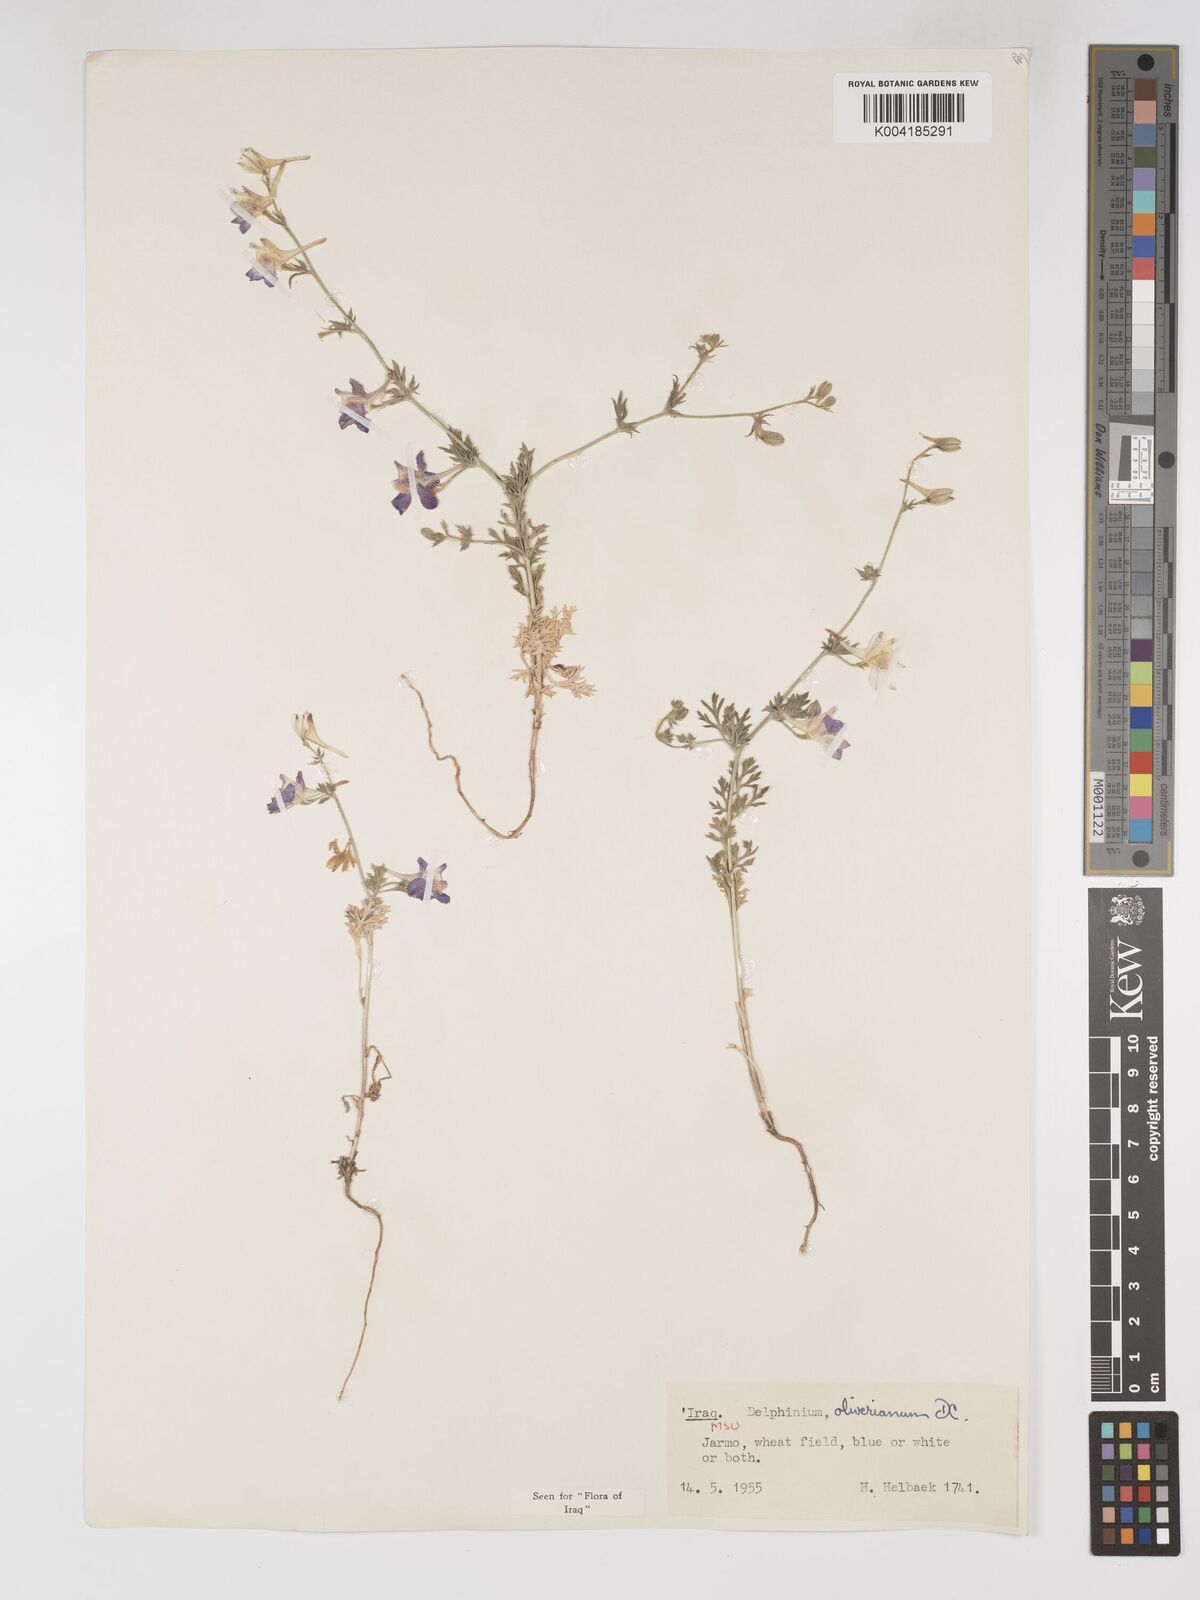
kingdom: Plantae
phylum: Tracheophyta
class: Magnoliopsida
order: Ranunculales
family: Ranunculaceae
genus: Delphinium
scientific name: Delphinium oliverianum
